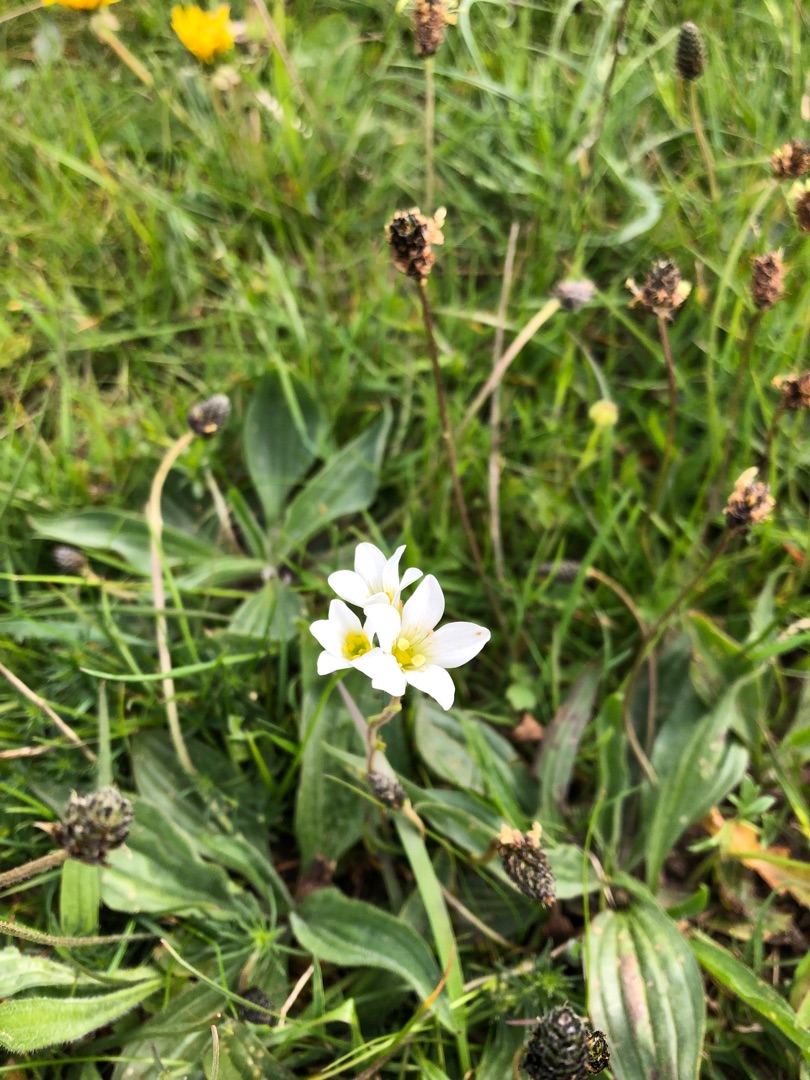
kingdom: Plantae
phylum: Tracheophyta
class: Magnoliopsida
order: Saxifragales
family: Saxifragaceae
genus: Saxifraga
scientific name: Saxifraga granulata
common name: Kornet stenbræk
